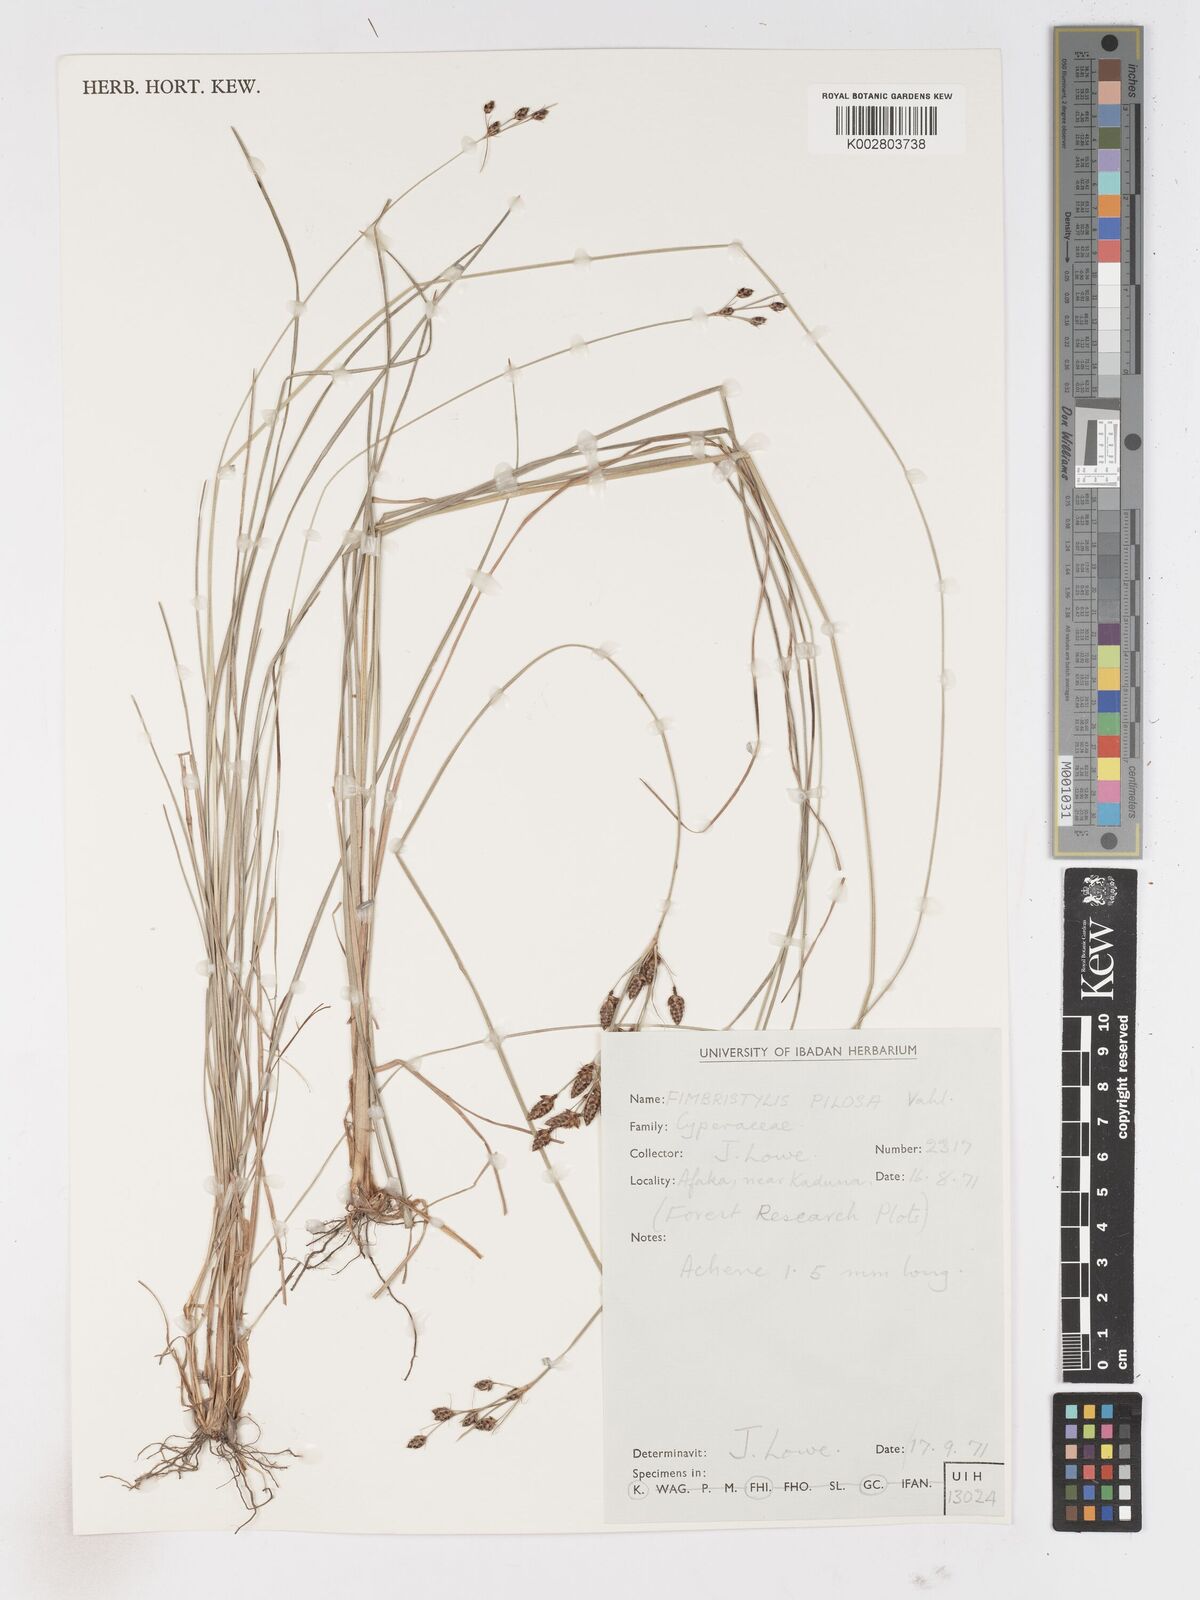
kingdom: Plantae
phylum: Tracheophyta
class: Liliopsida
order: Poales
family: Cyperaceae
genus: Fimbristylis
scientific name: Fimbristylis pilosa
